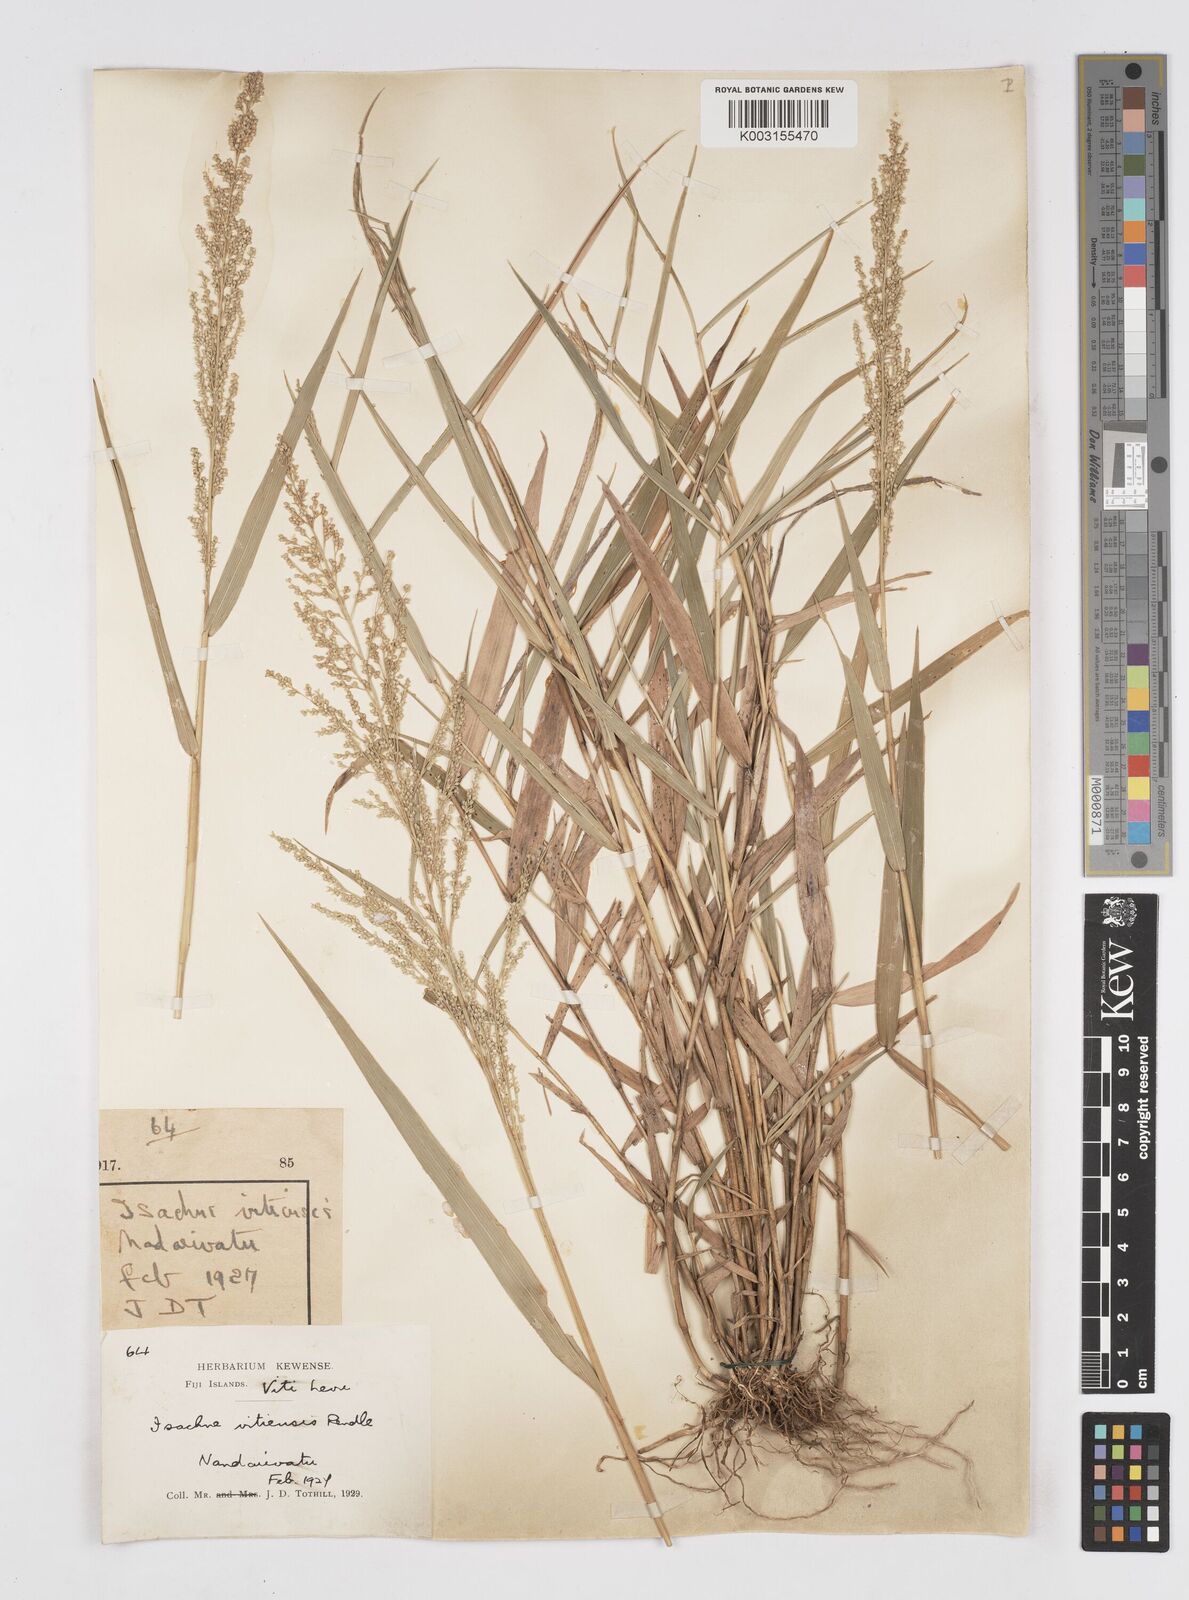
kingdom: Plantae
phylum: Tracheophyta
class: Liliopsida
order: Poales
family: Poaceae
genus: Isachne
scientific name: Isachne vitiensis
